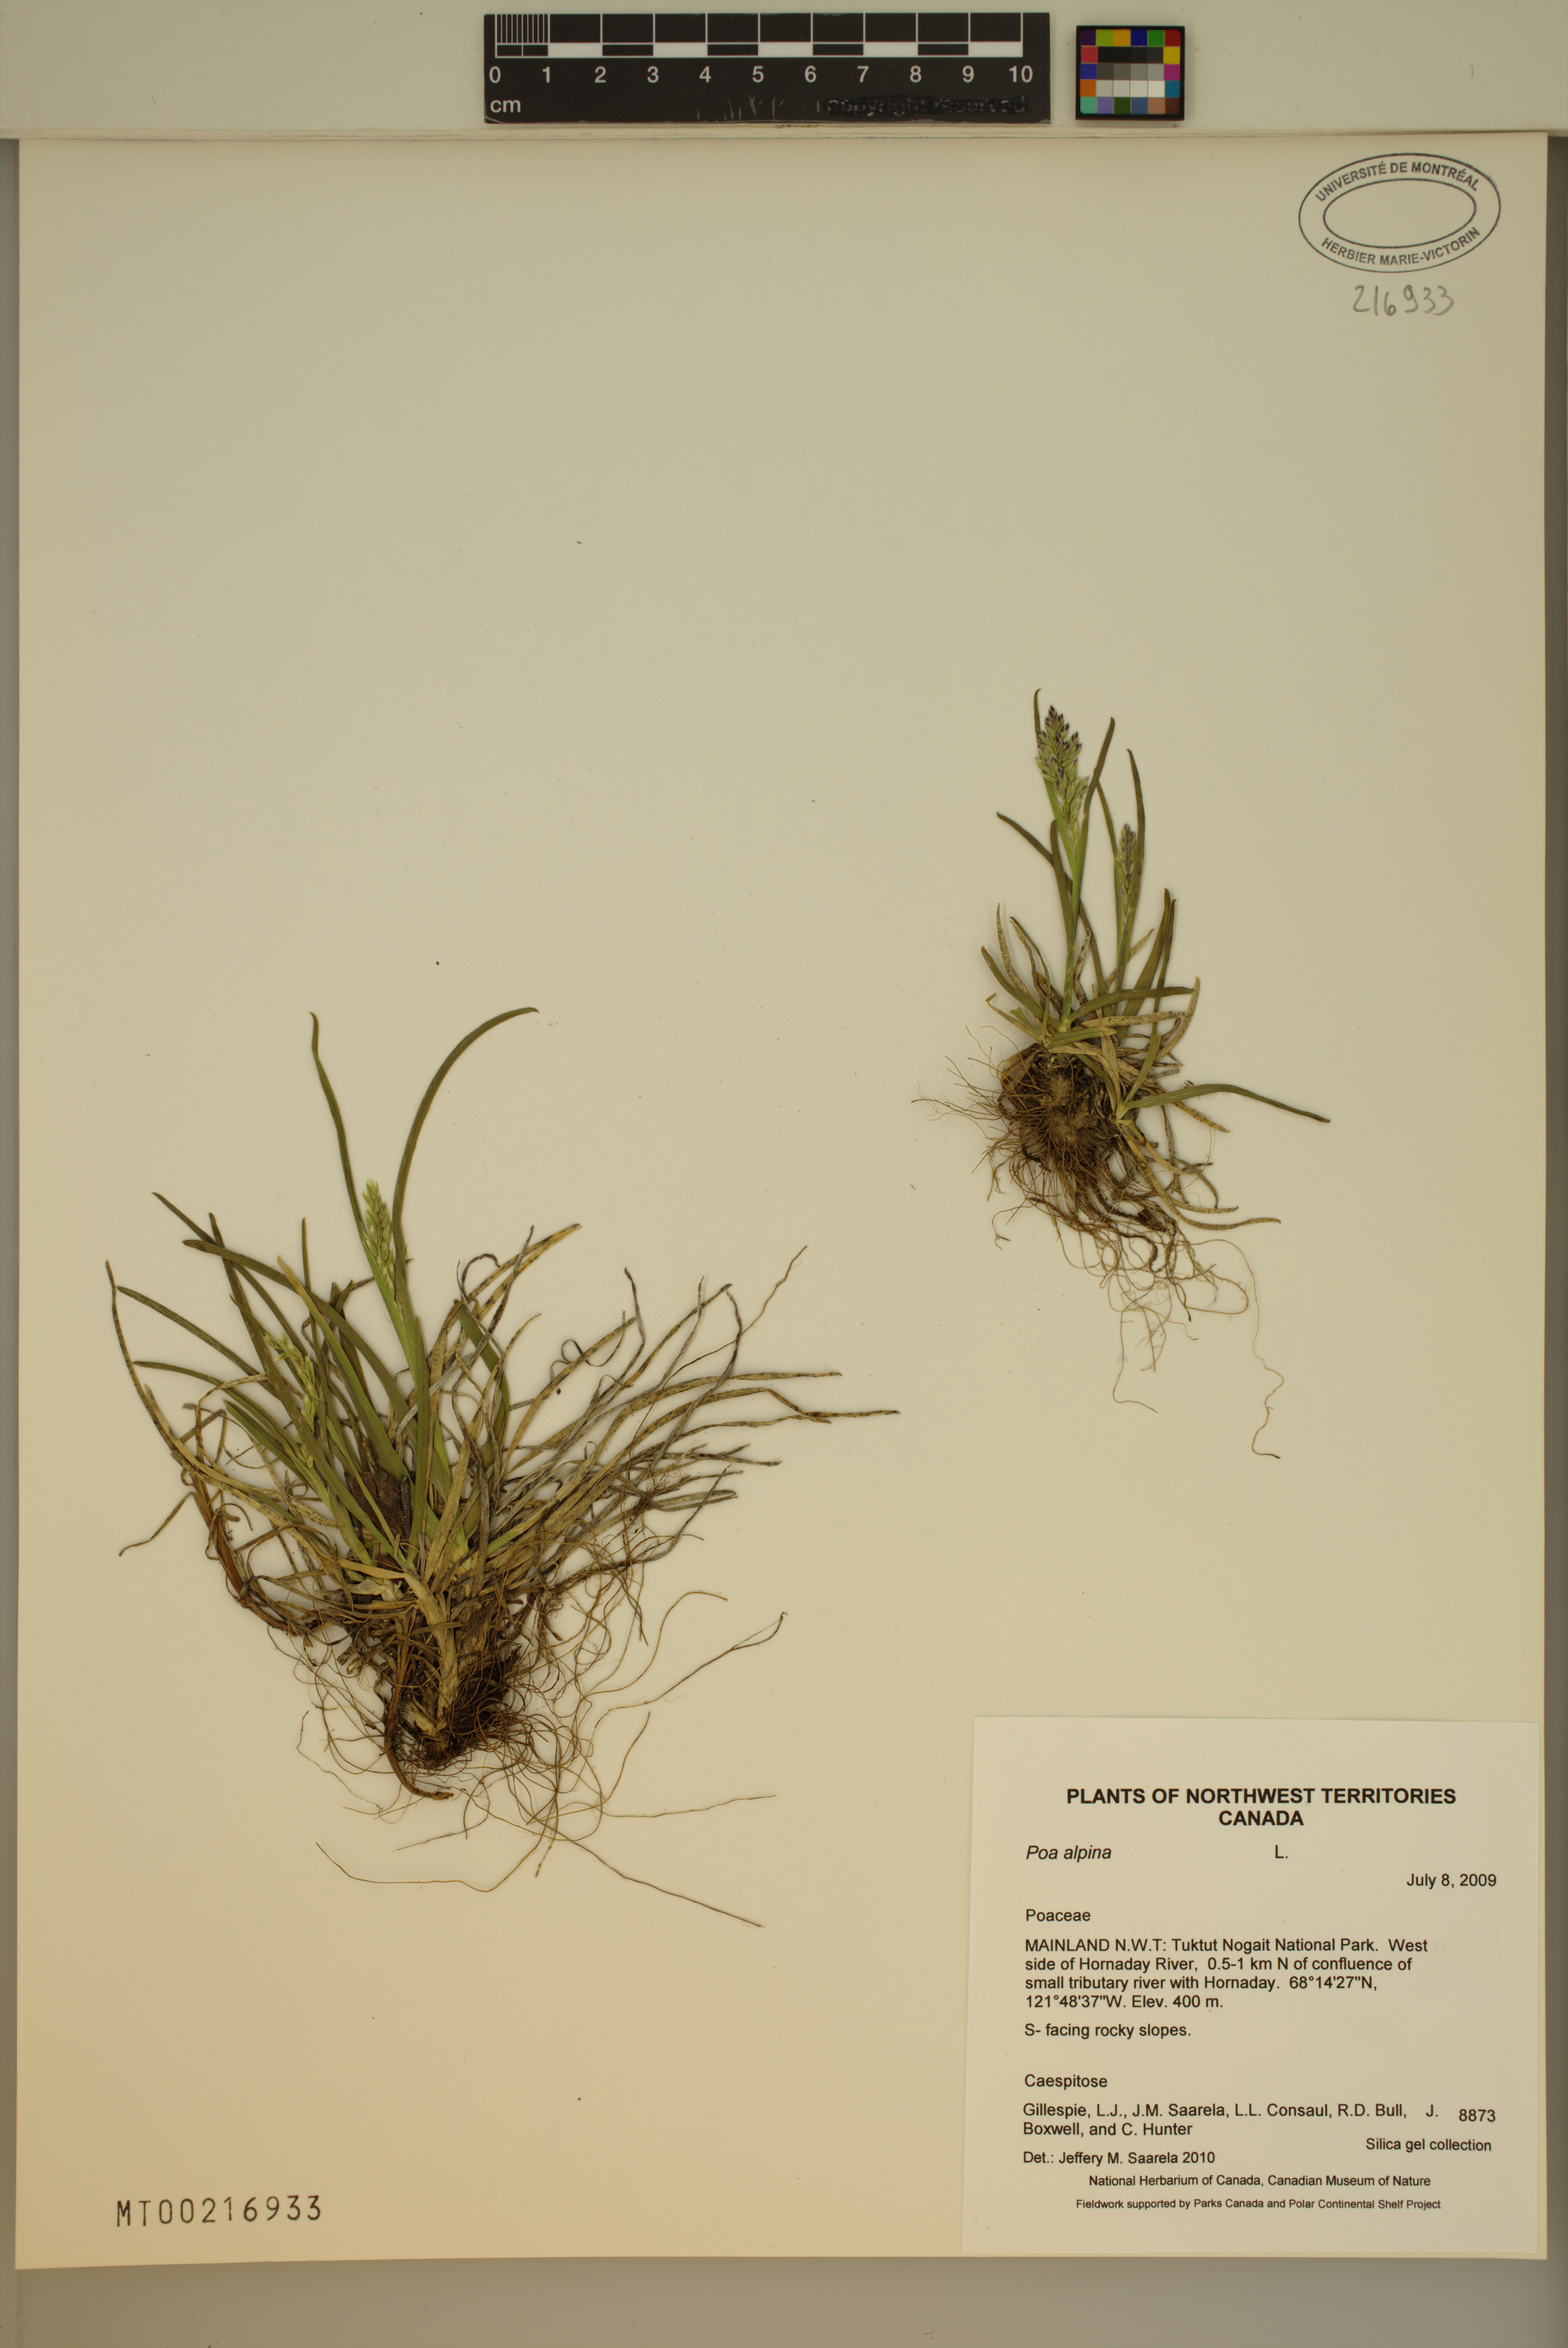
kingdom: Plantae
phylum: Tracheophyta
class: Liliopsida
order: Poales
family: Poaceae
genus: Poa
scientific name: Poa alpina
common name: Alpine bluegrass
